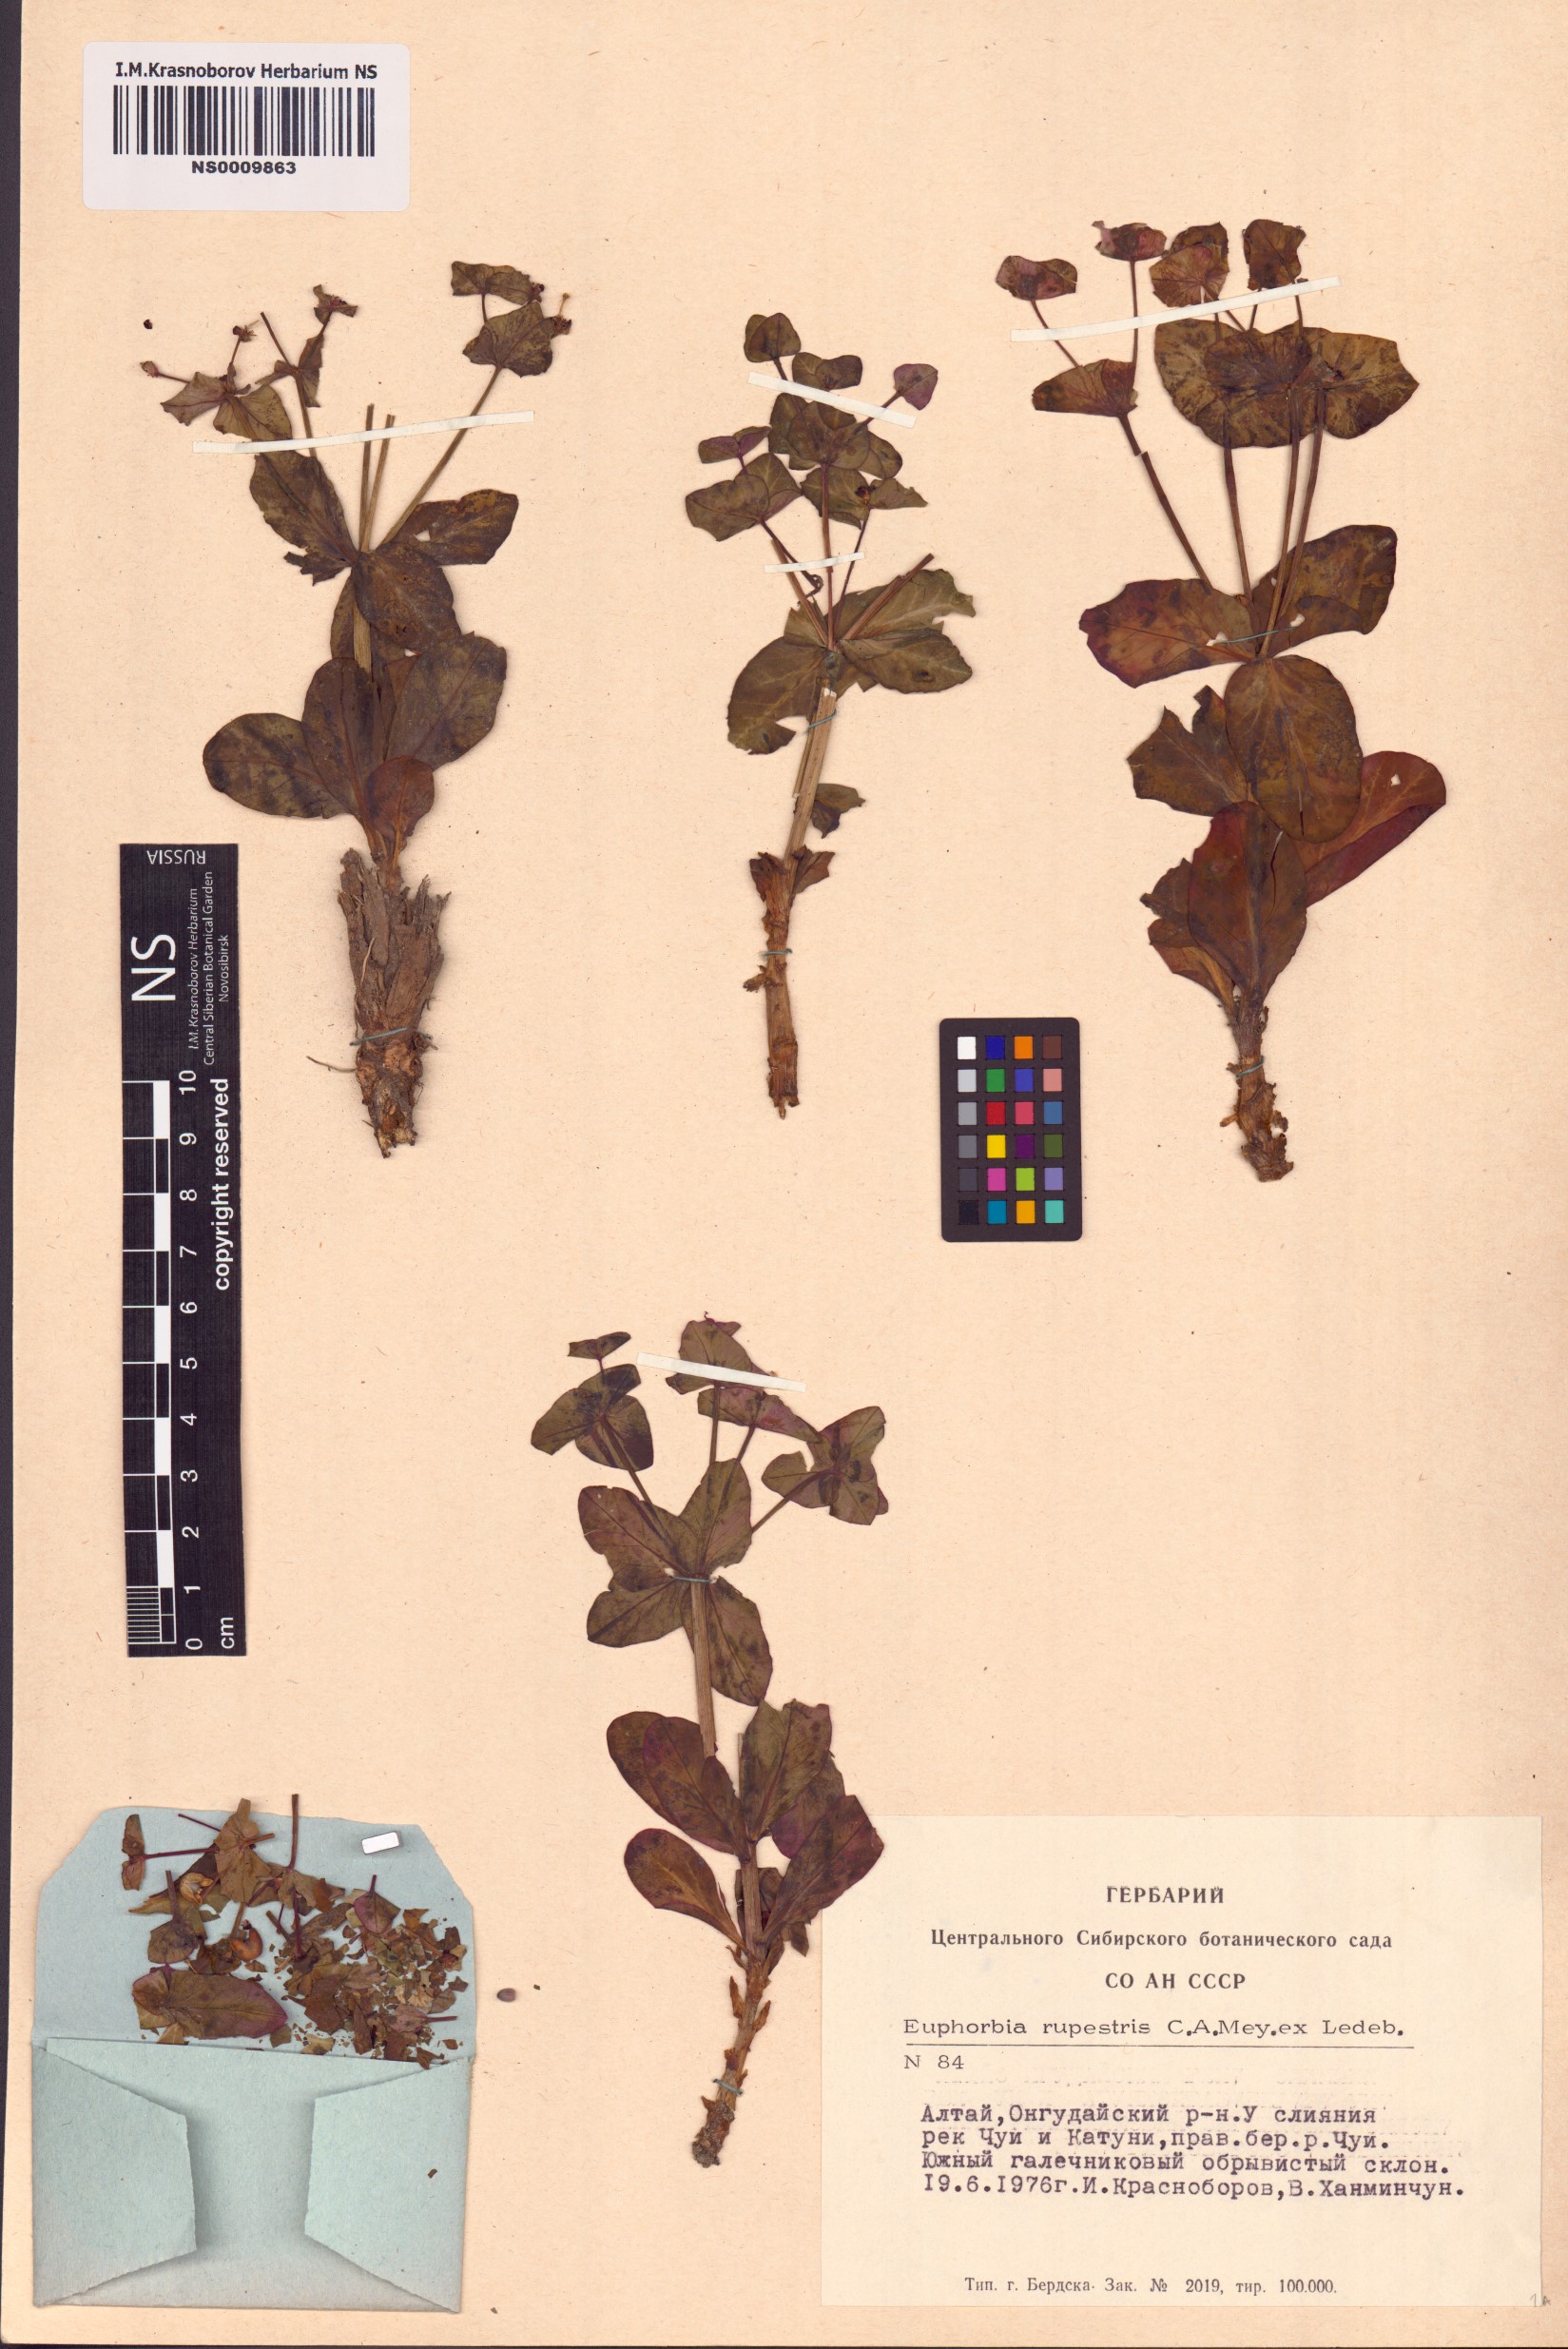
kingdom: Plantae
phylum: Tracheophyta
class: Magnoliopsida
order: Malpighiales
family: Euphorbiaceae
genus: Euphorbia
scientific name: Euphorbia rupestris
